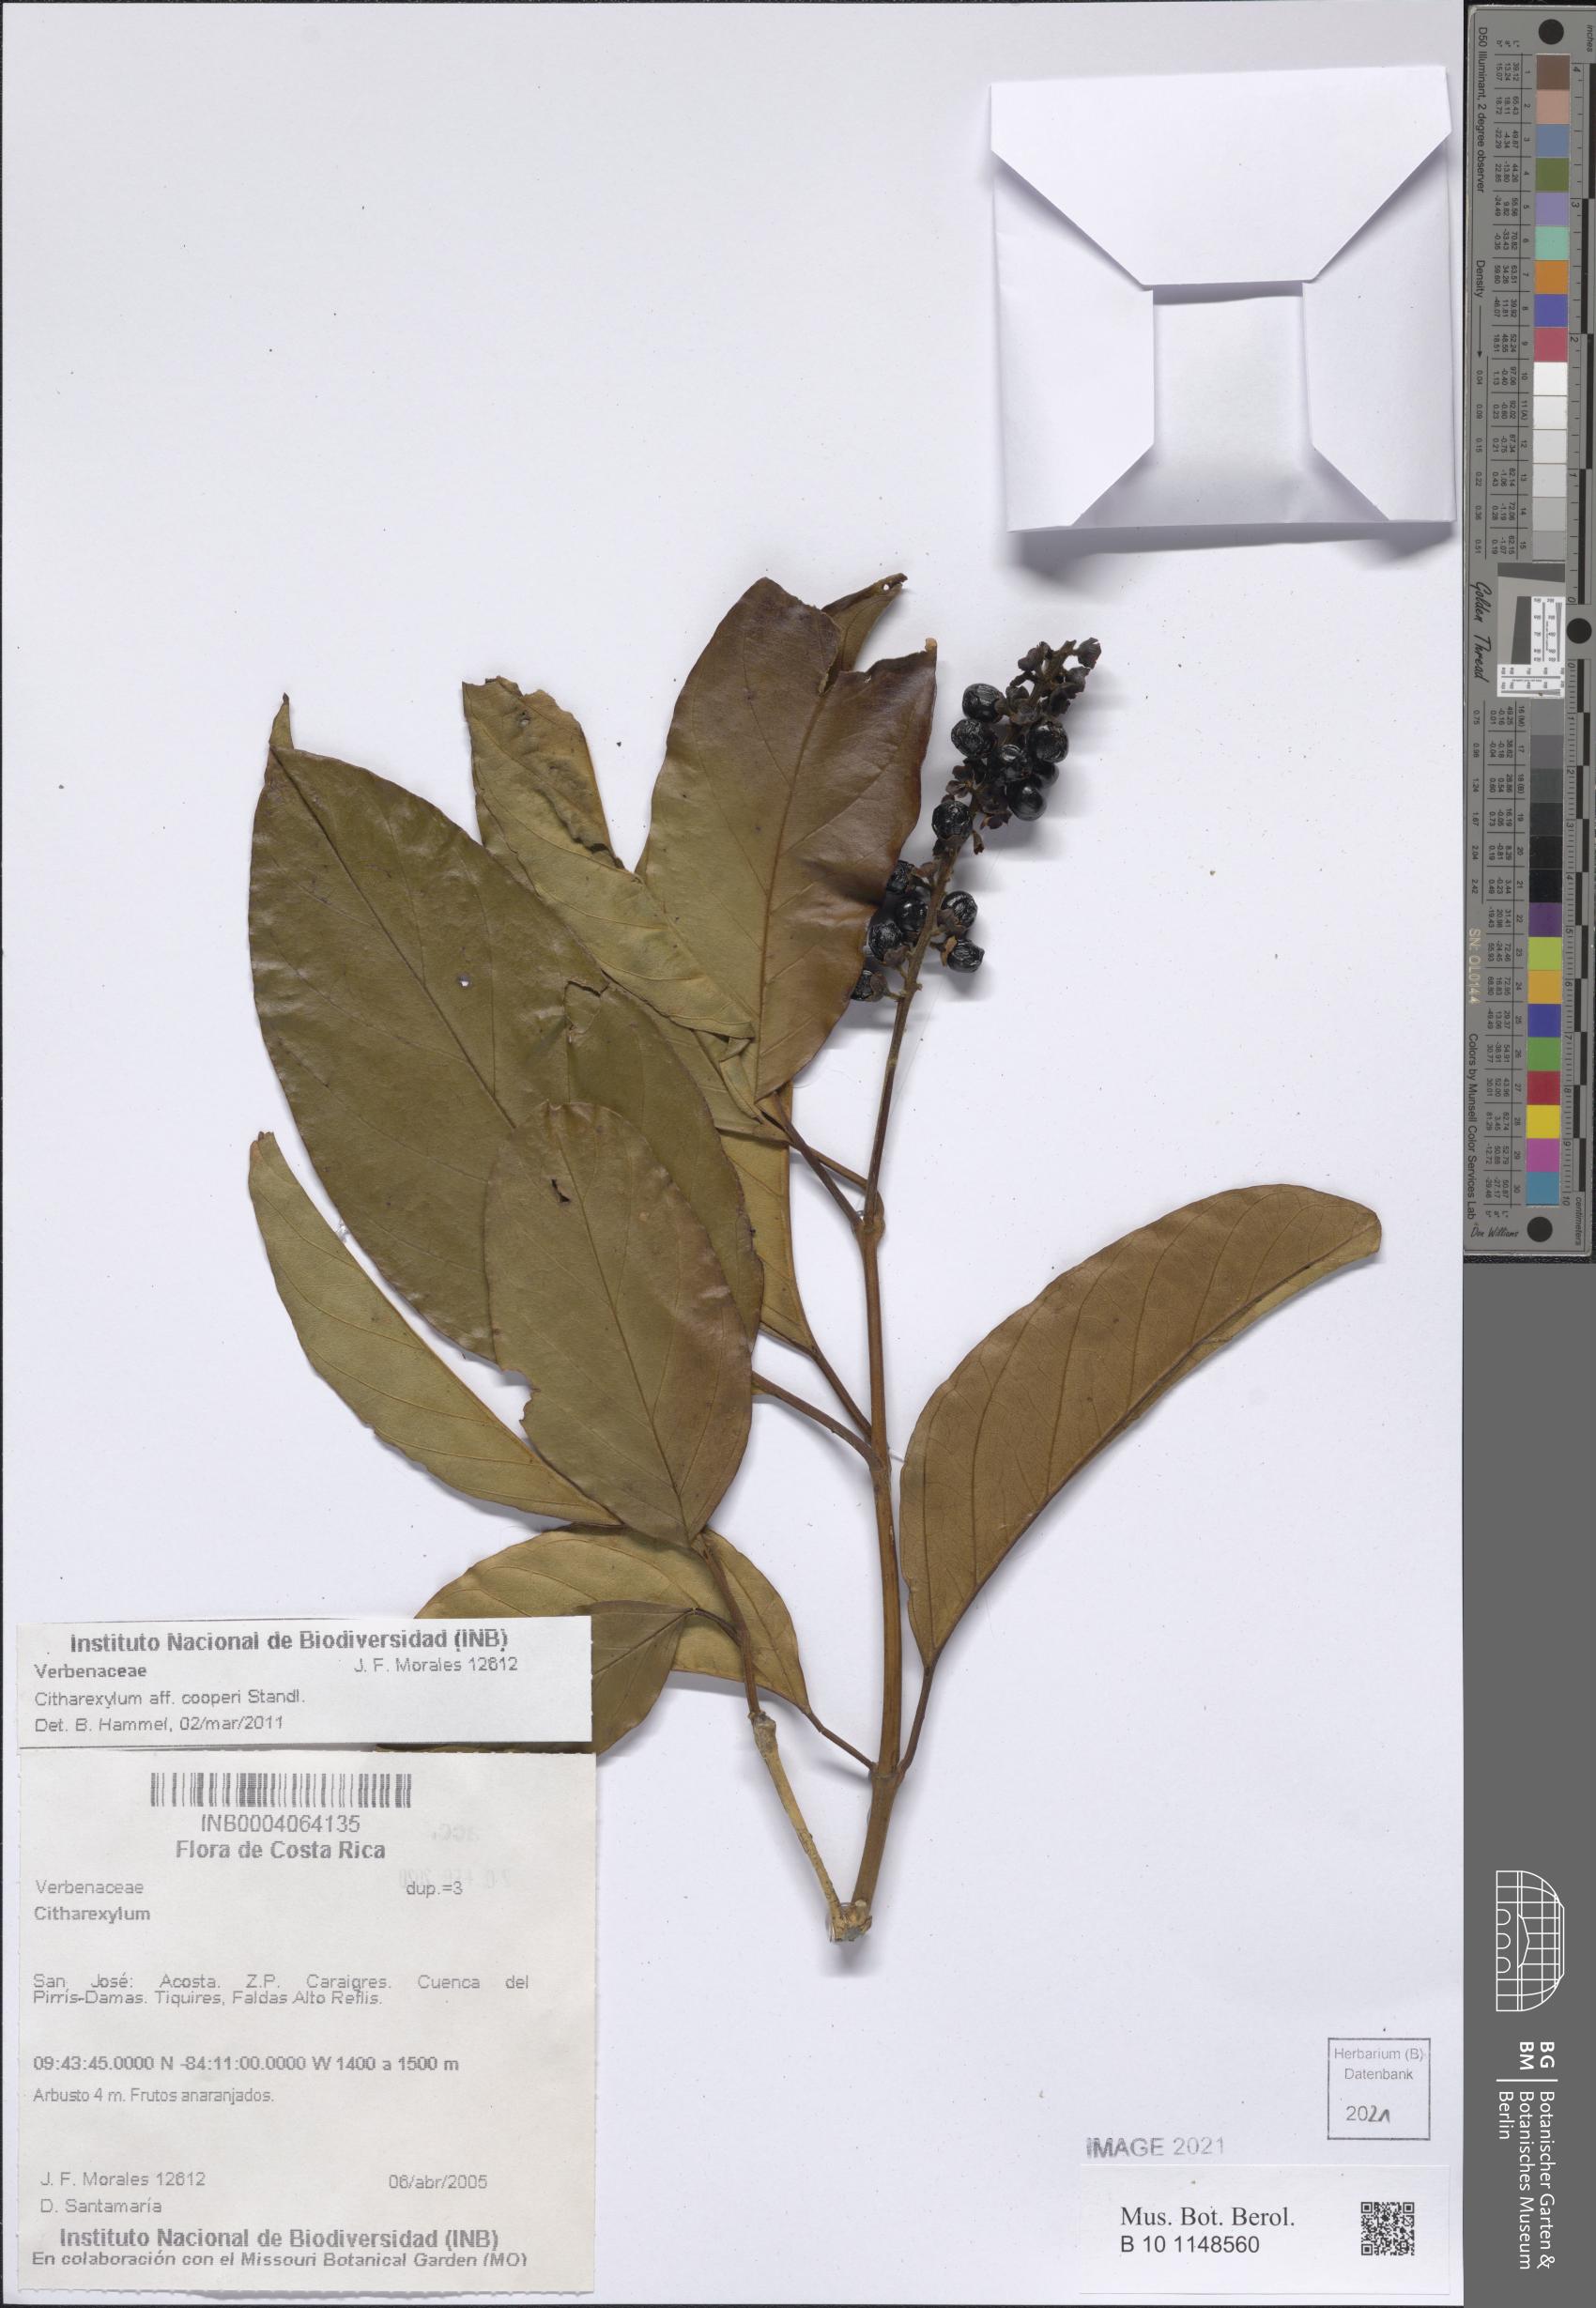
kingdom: Plantae
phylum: Tracheophyta
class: Magnoliopsida
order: Lamiales
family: Verbenaceae
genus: Citharexylum
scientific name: Citharexylum cooperi
